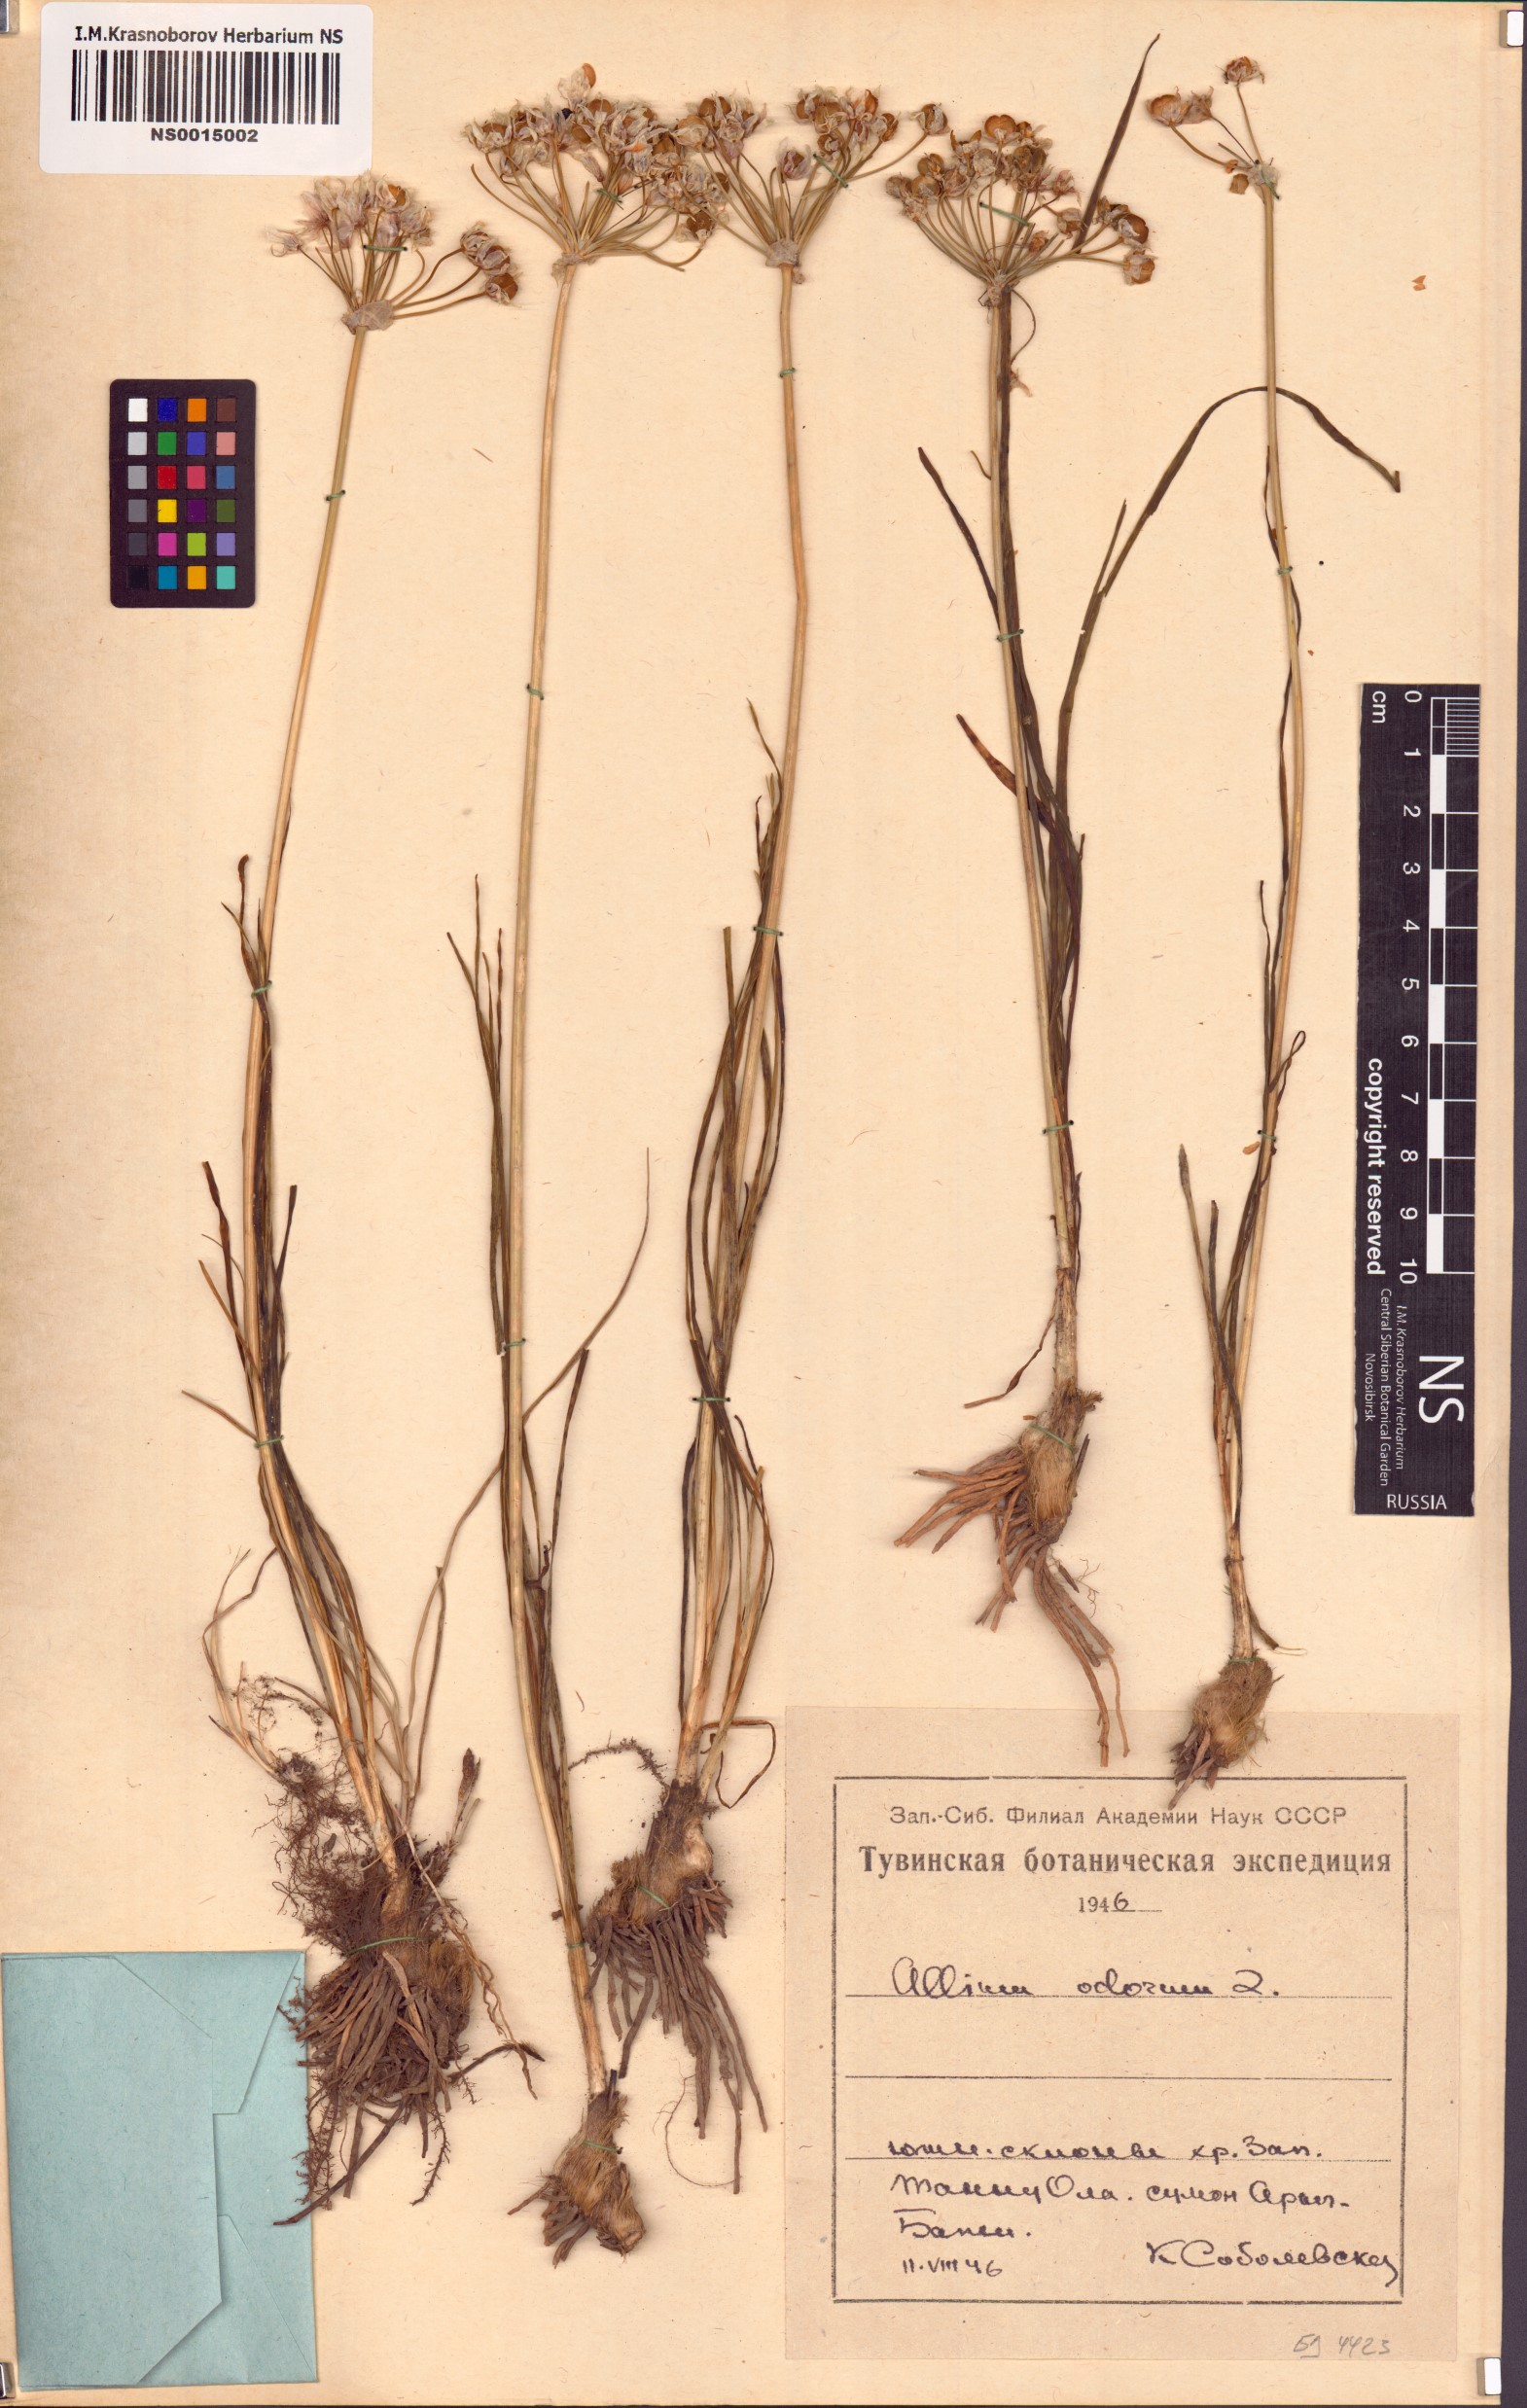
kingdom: Plantae
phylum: Tracheophyta
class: Liliopsida
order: Asparagales
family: Amaryllidaceae
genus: Allium
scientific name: Allium ramosum
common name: Fragrant garlic
